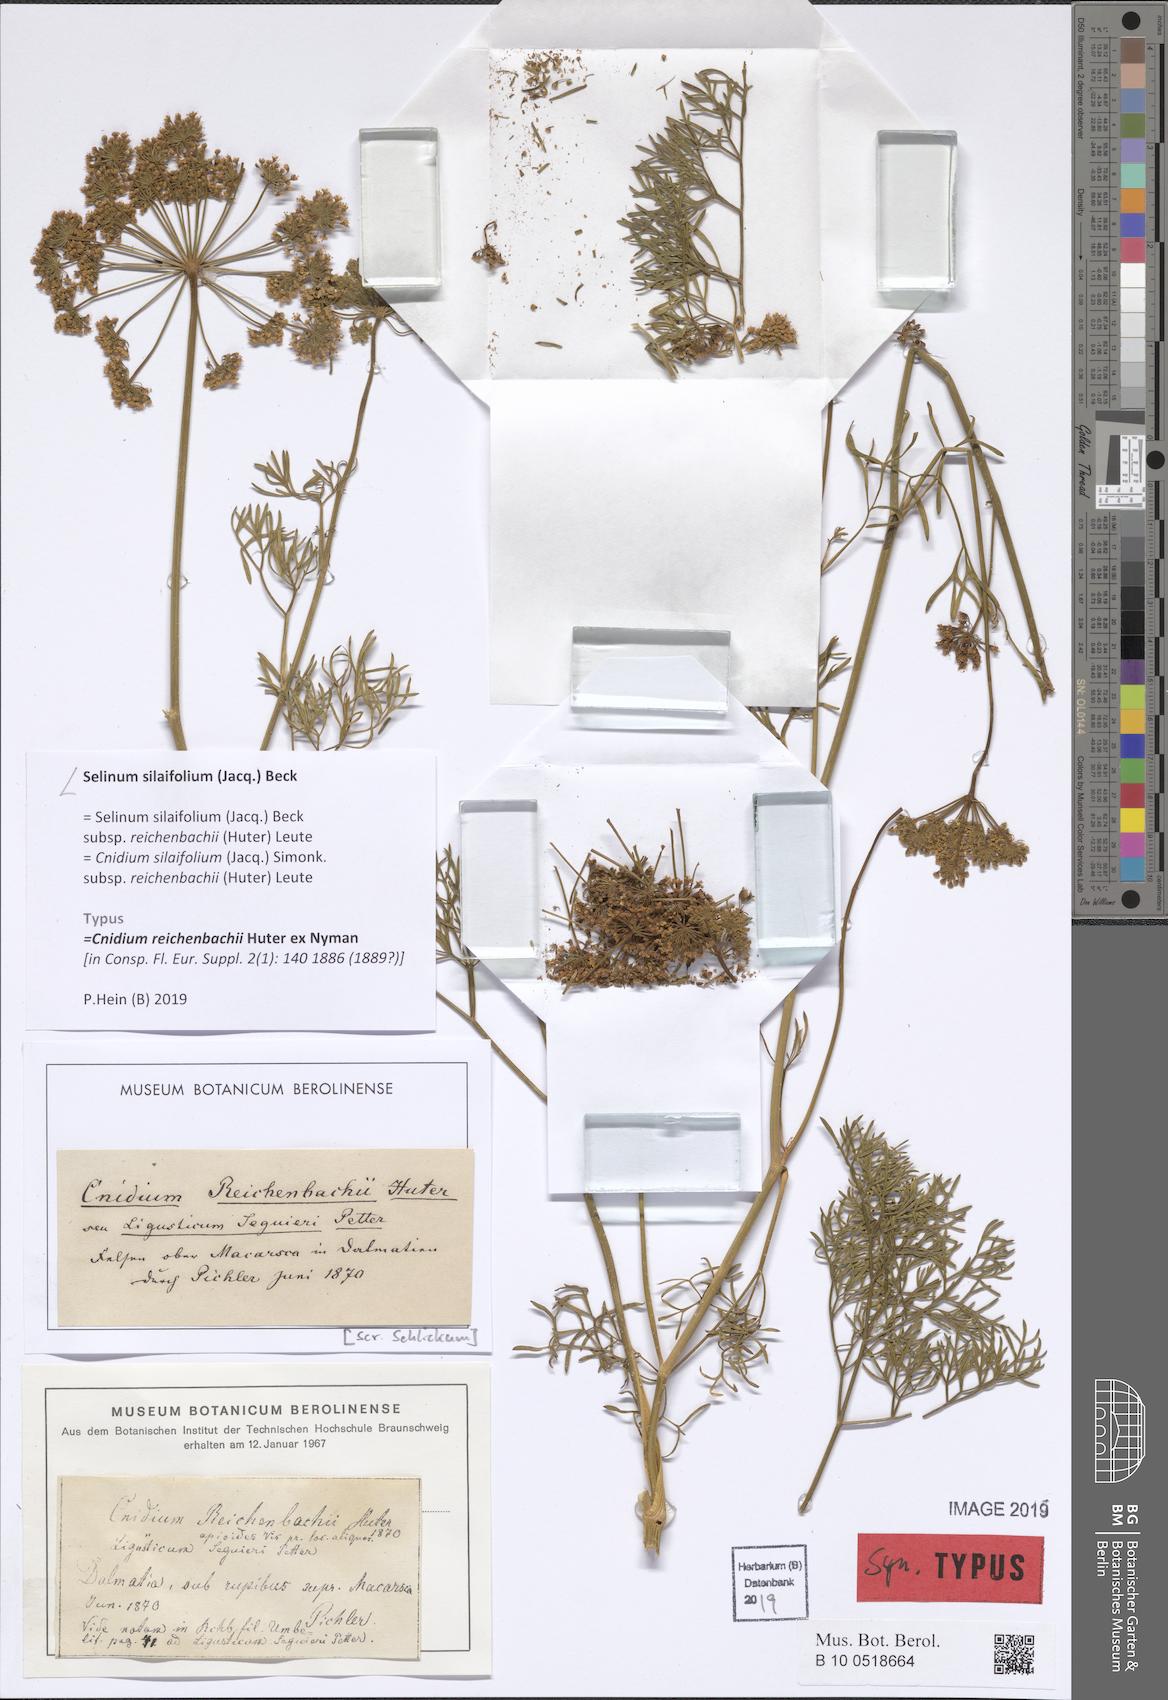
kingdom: Plantae
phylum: Tracheophyta
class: Magnoliopsida
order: Apiales
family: Apiaceae
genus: Katapsuxis
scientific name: Katapsuxis silaifolia
